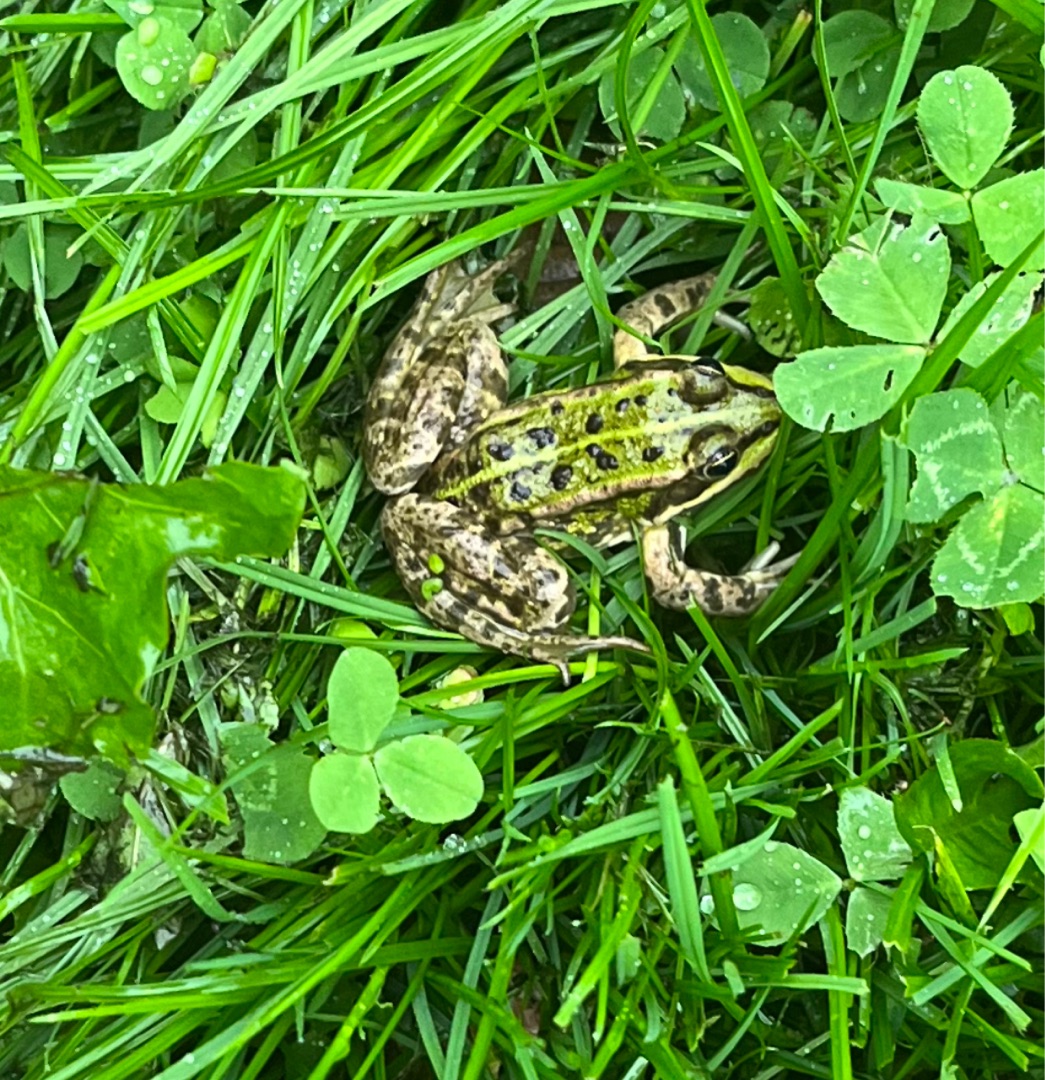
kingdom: Animalia
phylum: Chordata
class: Amphibia
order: Anura
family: Ranidae
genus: Pelophylax
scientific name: Pelophylax lessonae
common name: Grøn frø
